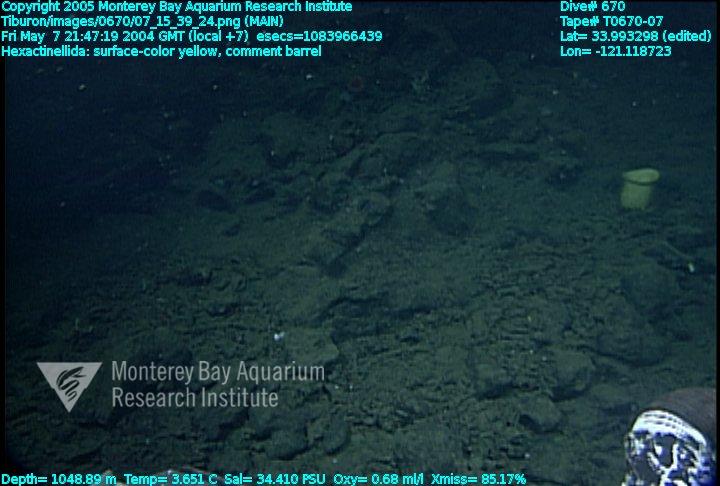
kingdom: Animalia
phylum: Porifera
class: Hexactinellida
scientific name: Hexactinellida
